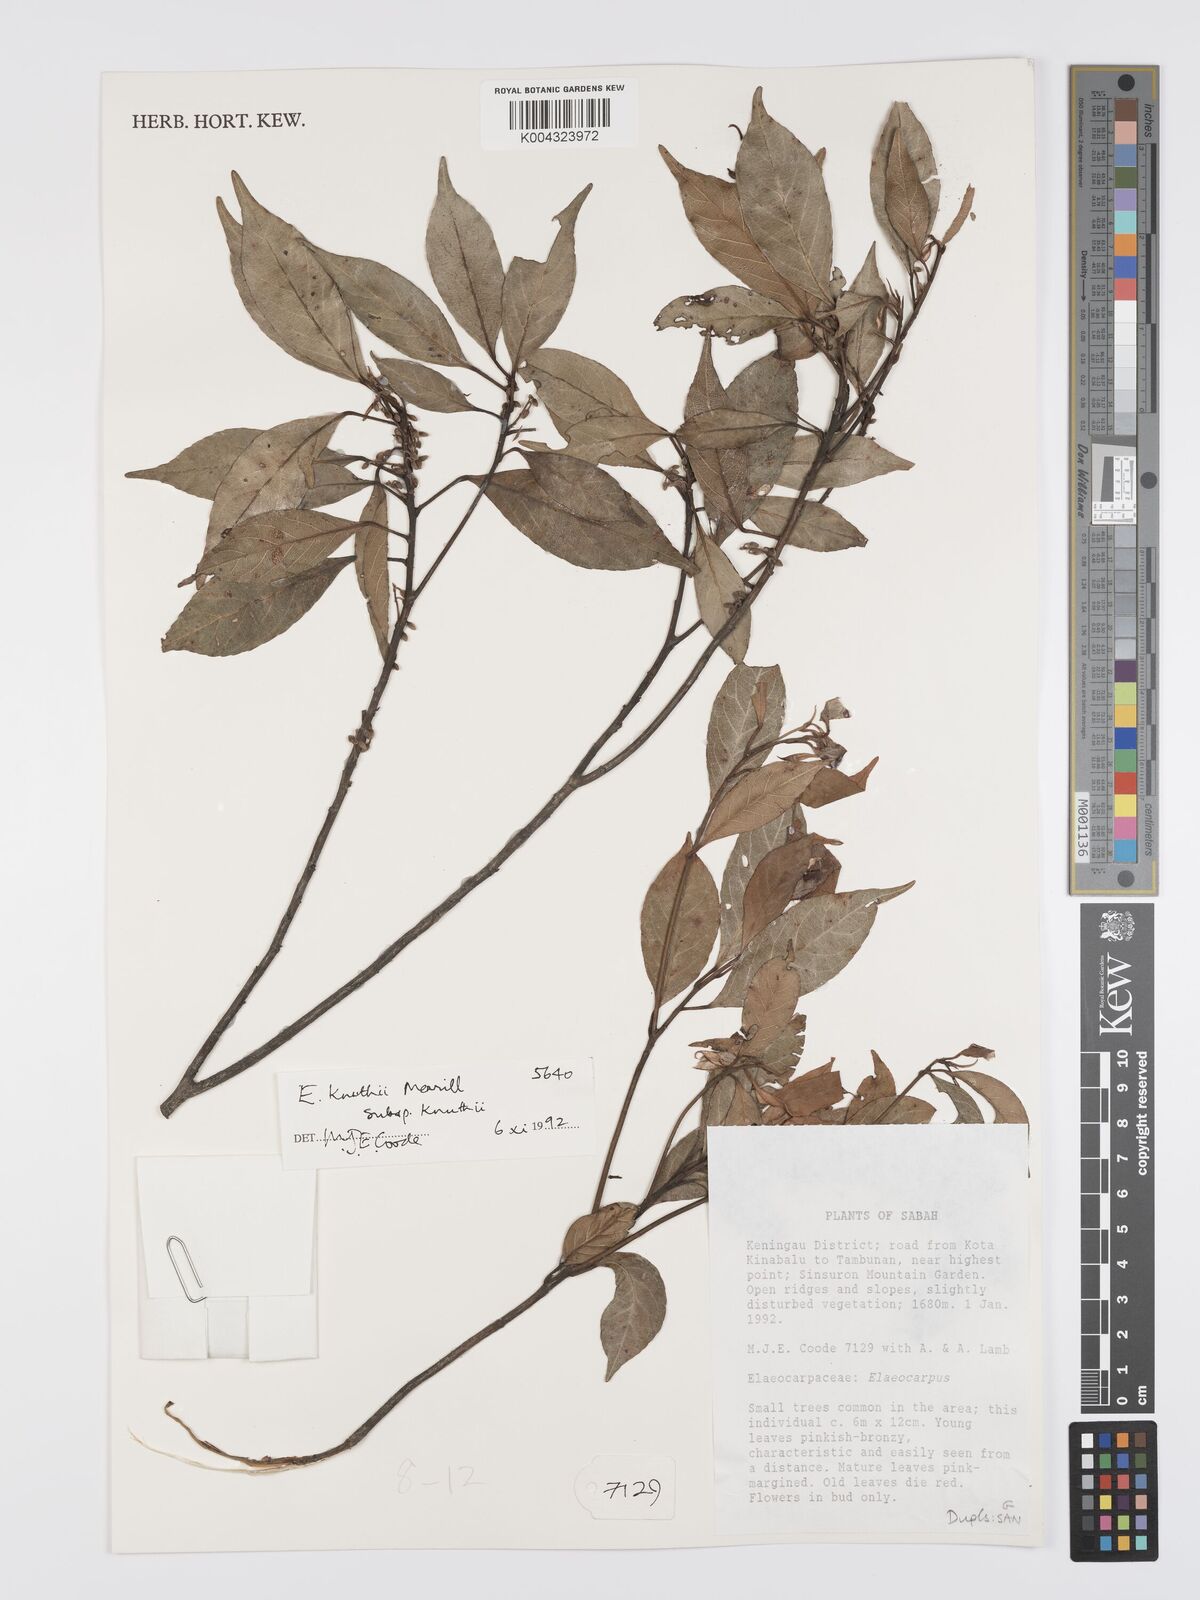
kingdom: Plantae
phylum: Tracheophyta
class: Magnoliopsida
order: Oxalidales
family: Elaeocarpaceae
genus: Elaeocarpus
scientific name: Elaeocarpus knuthii
